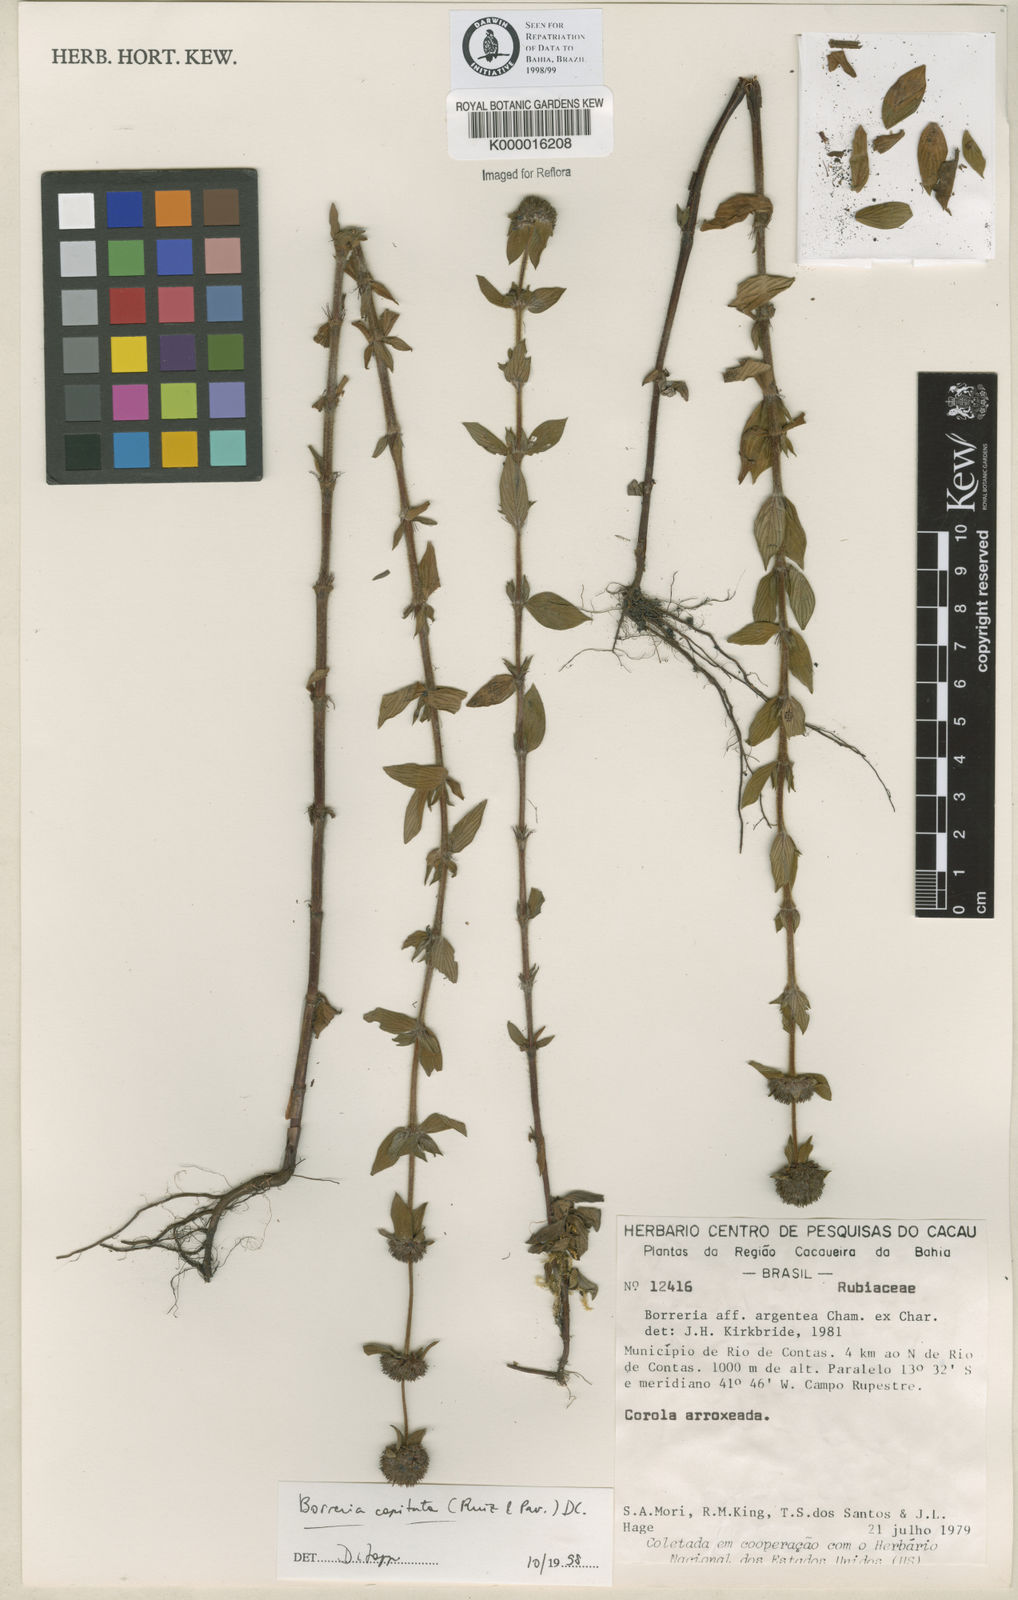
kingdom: Plantae
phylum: Tracheophyta
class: Magnoliopsida
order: Gentianales
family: Rubiaceae
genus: Spermacoce
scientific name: Spermacoce capitata
